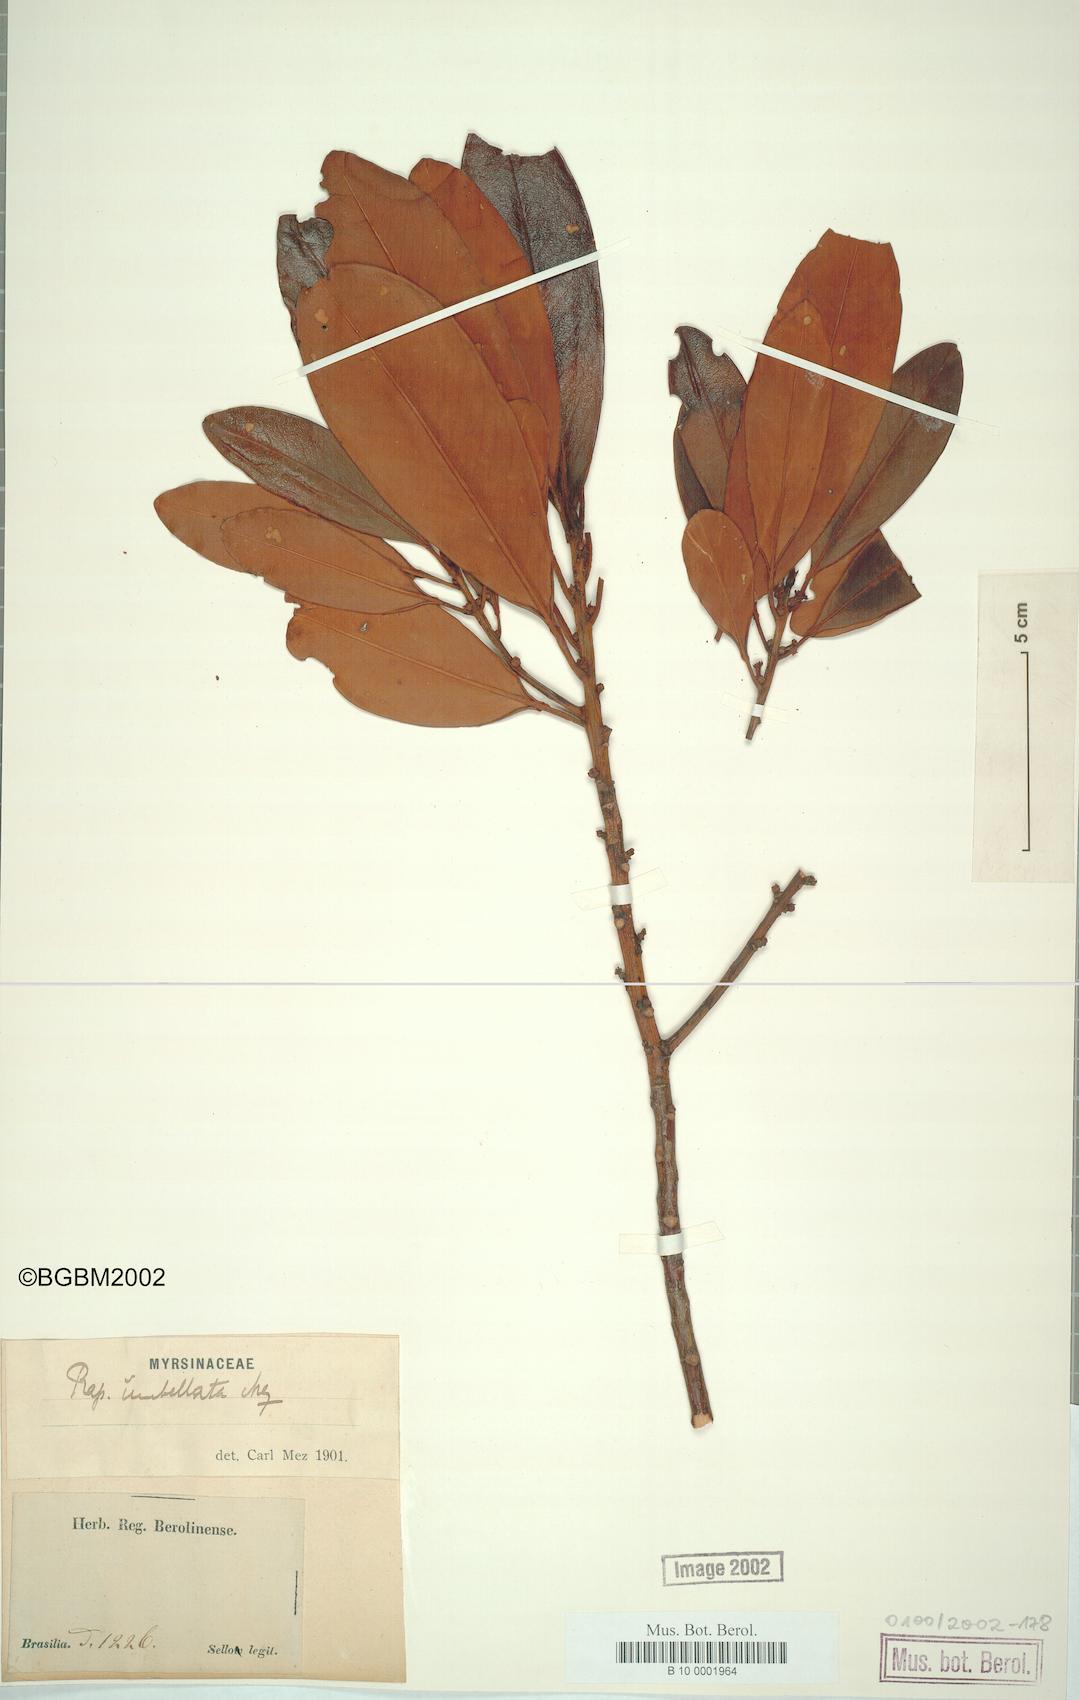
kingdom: Plantae
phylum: Tracheophyta
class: Magnoliopsida
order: Ericales
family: Primulaceae
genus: Myrsine
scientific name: Myrsine umbellata
